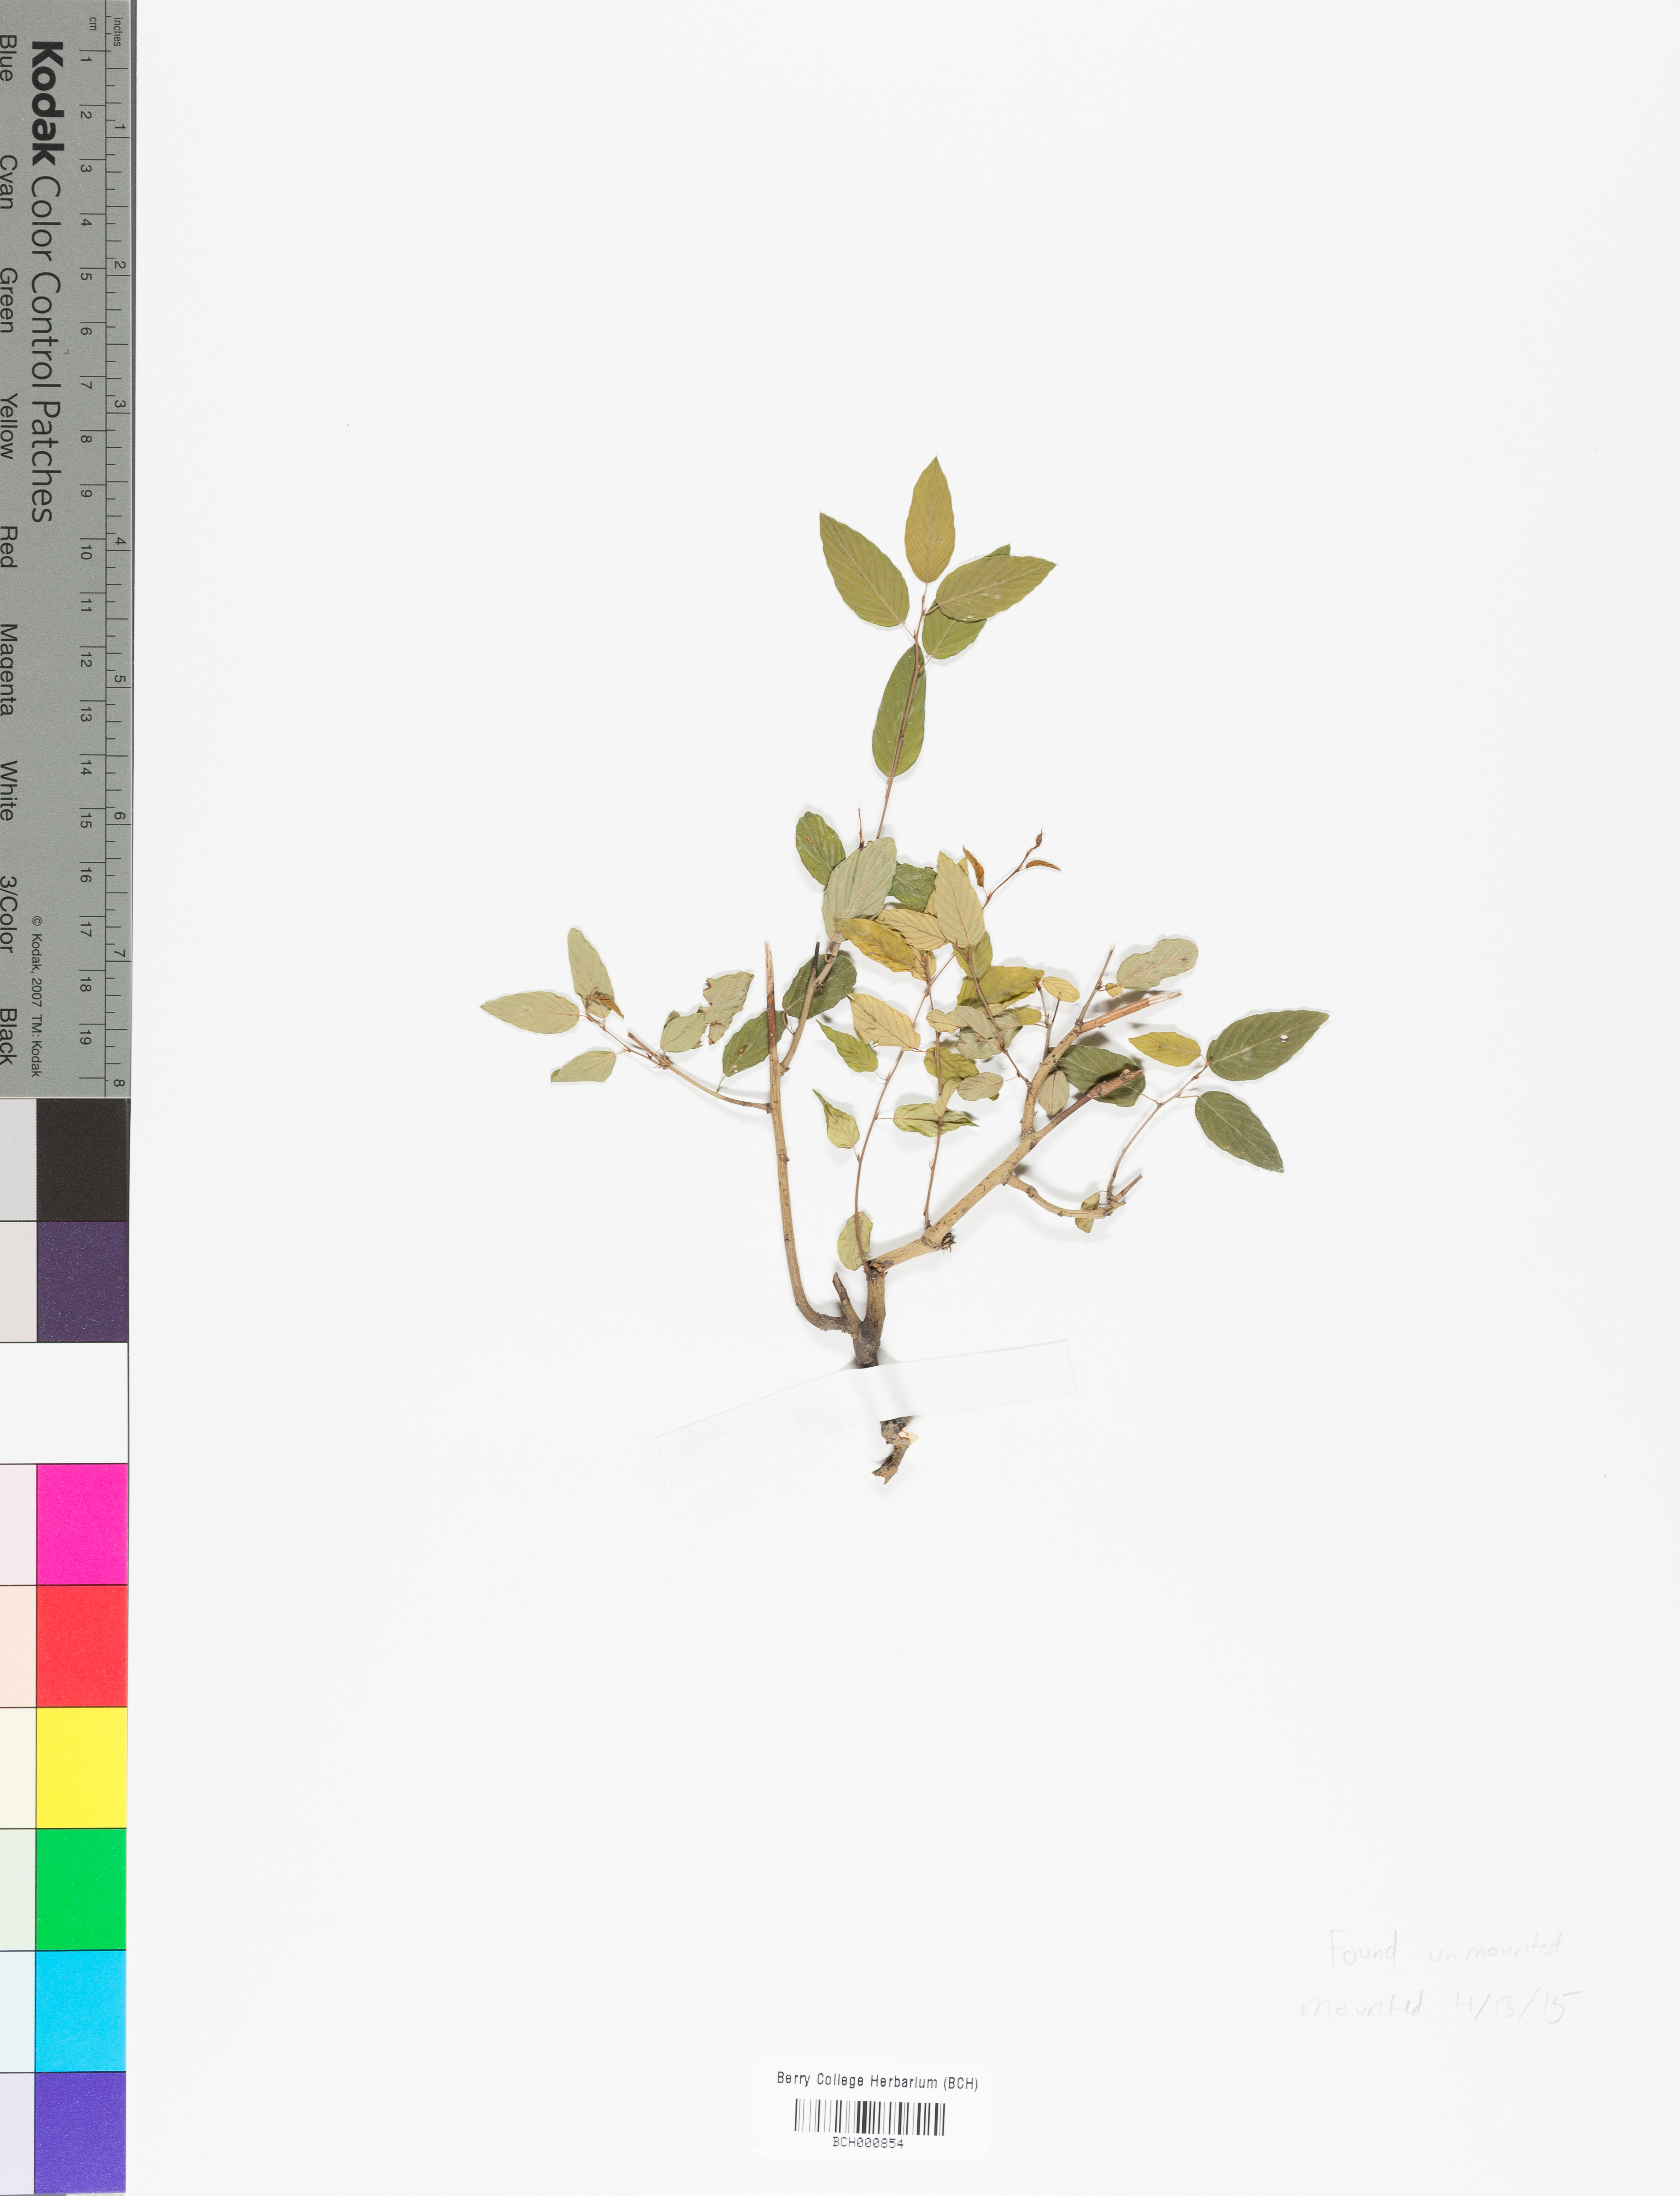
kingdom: Plantae
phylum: Tracheophyta
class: Magnoliopsida
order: Lamiales
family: Acanthaceae
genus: Adhatoda
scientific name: Adhatoda
